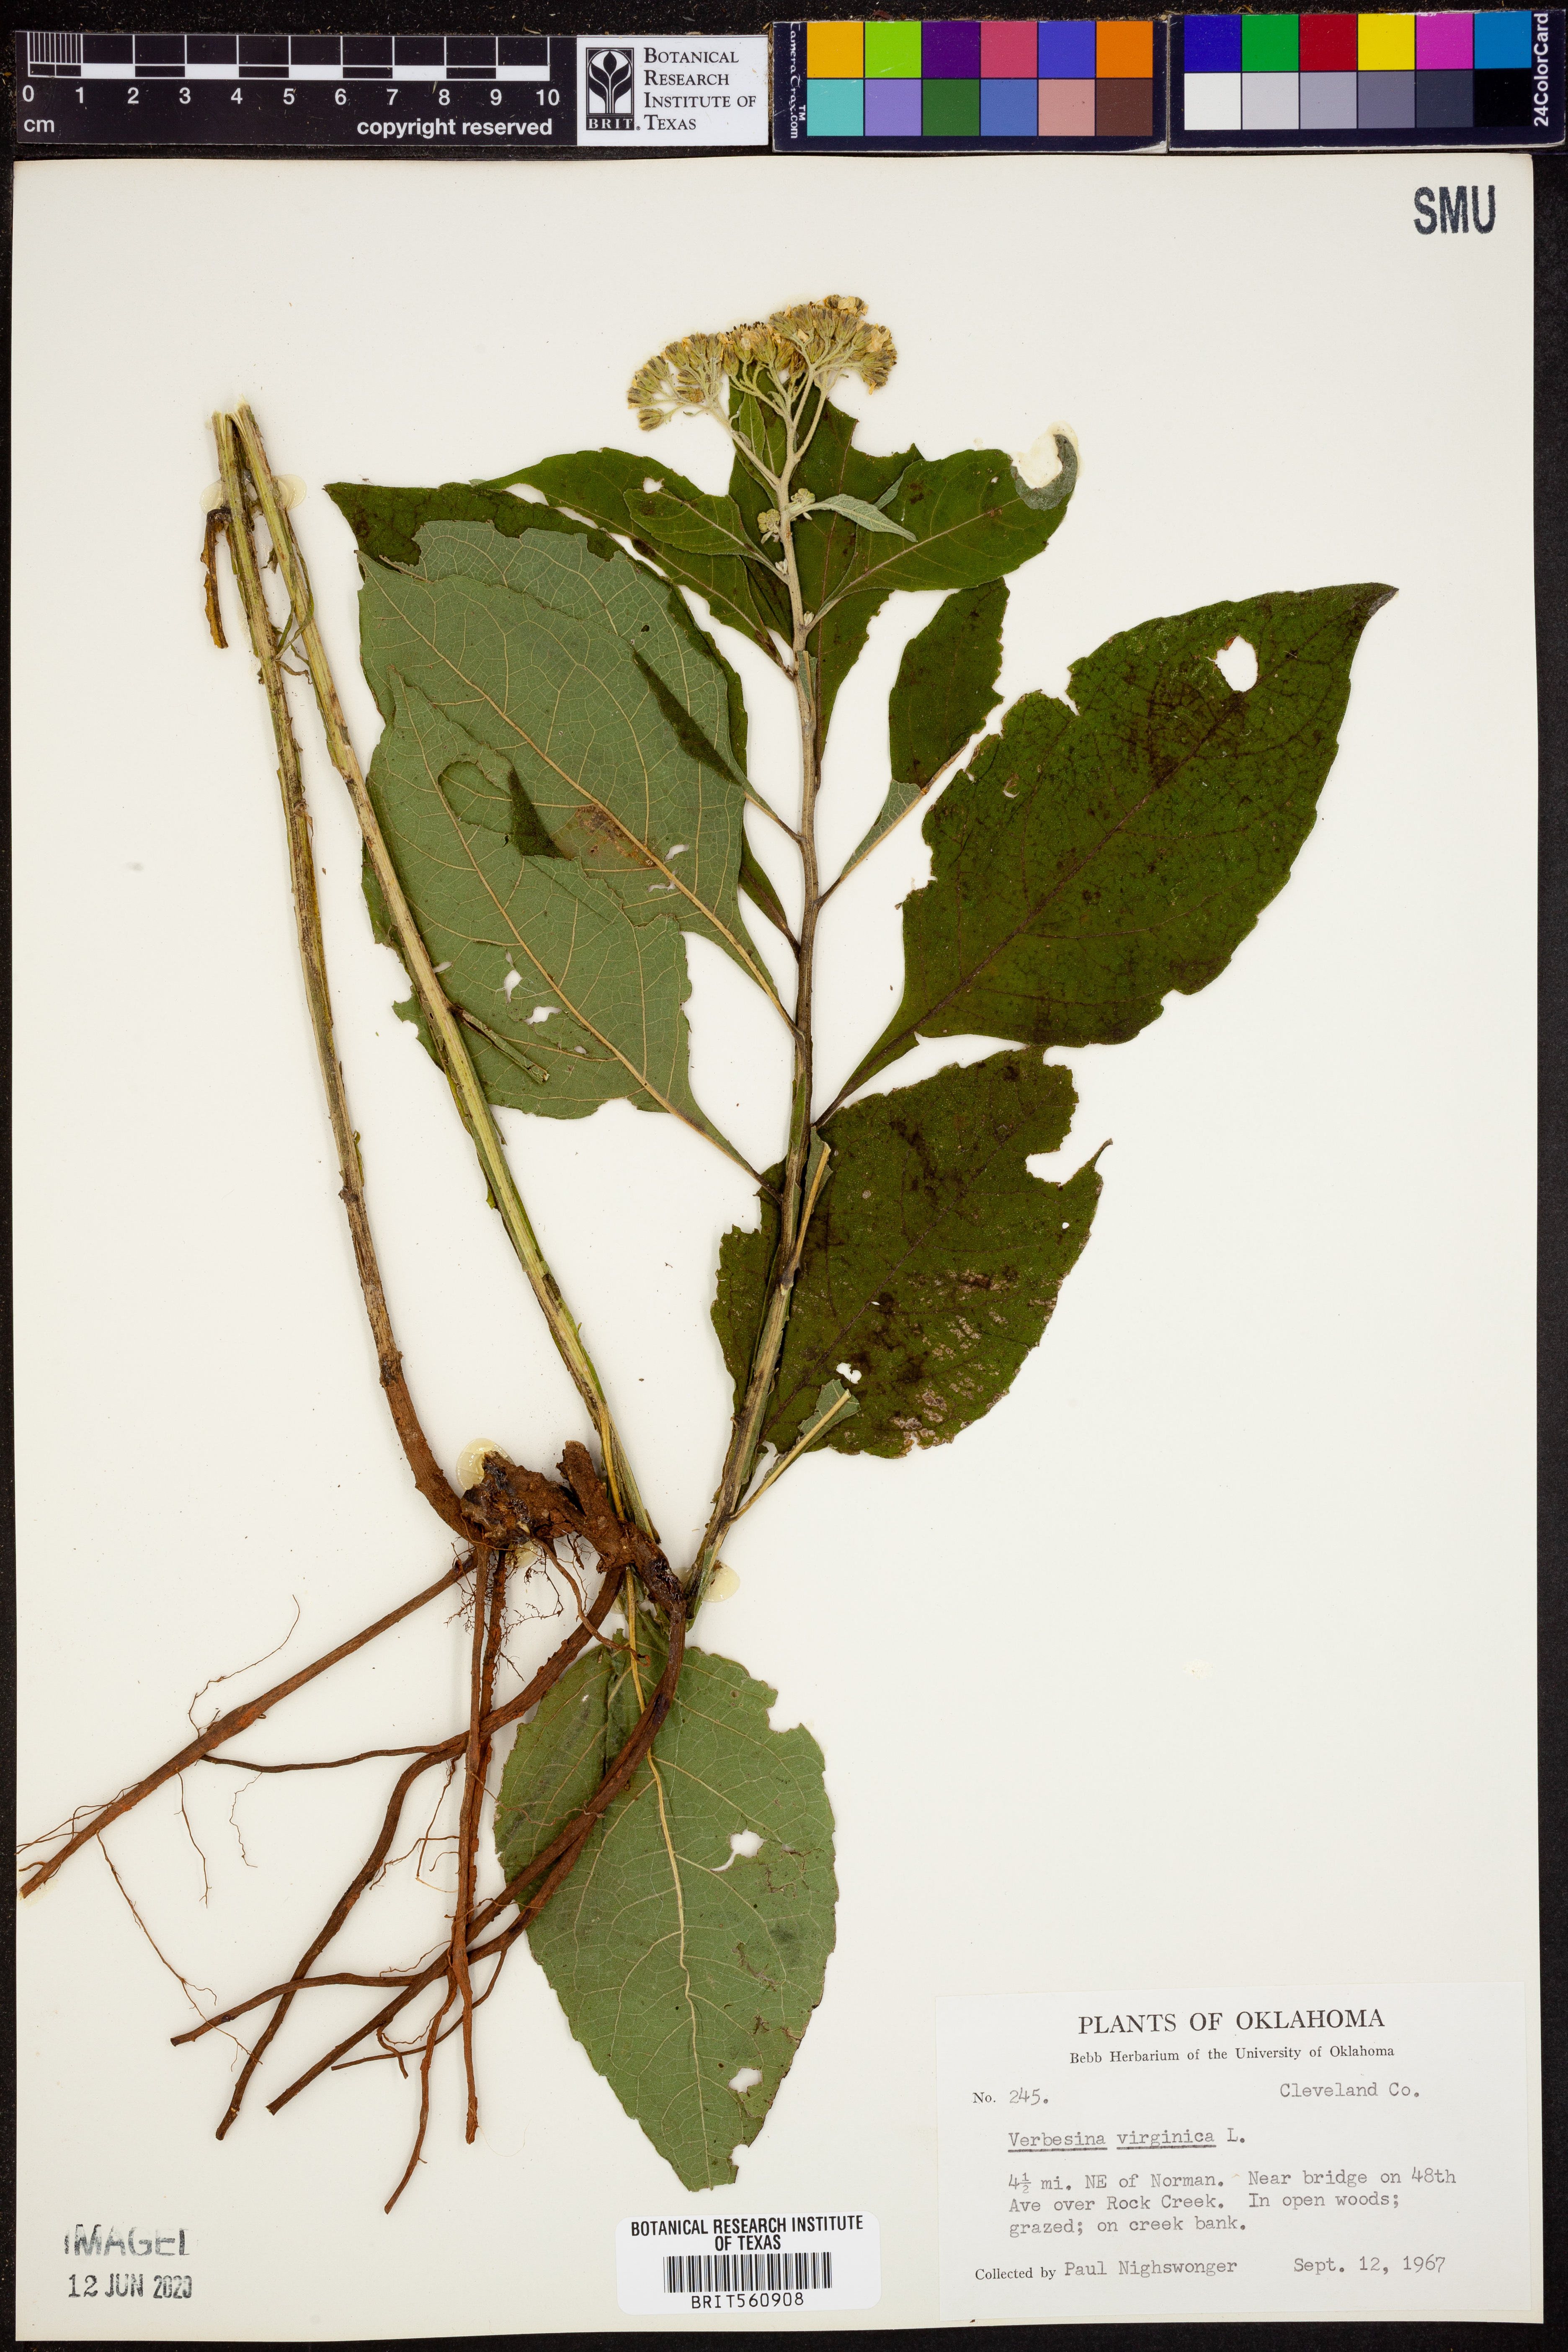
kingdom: Plantae
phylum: Tracheophyta
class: Magnoliopsida
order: Asterales
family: Asteraceae
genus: Verbesina
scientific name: Verbesina virginica
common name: Frostweed
